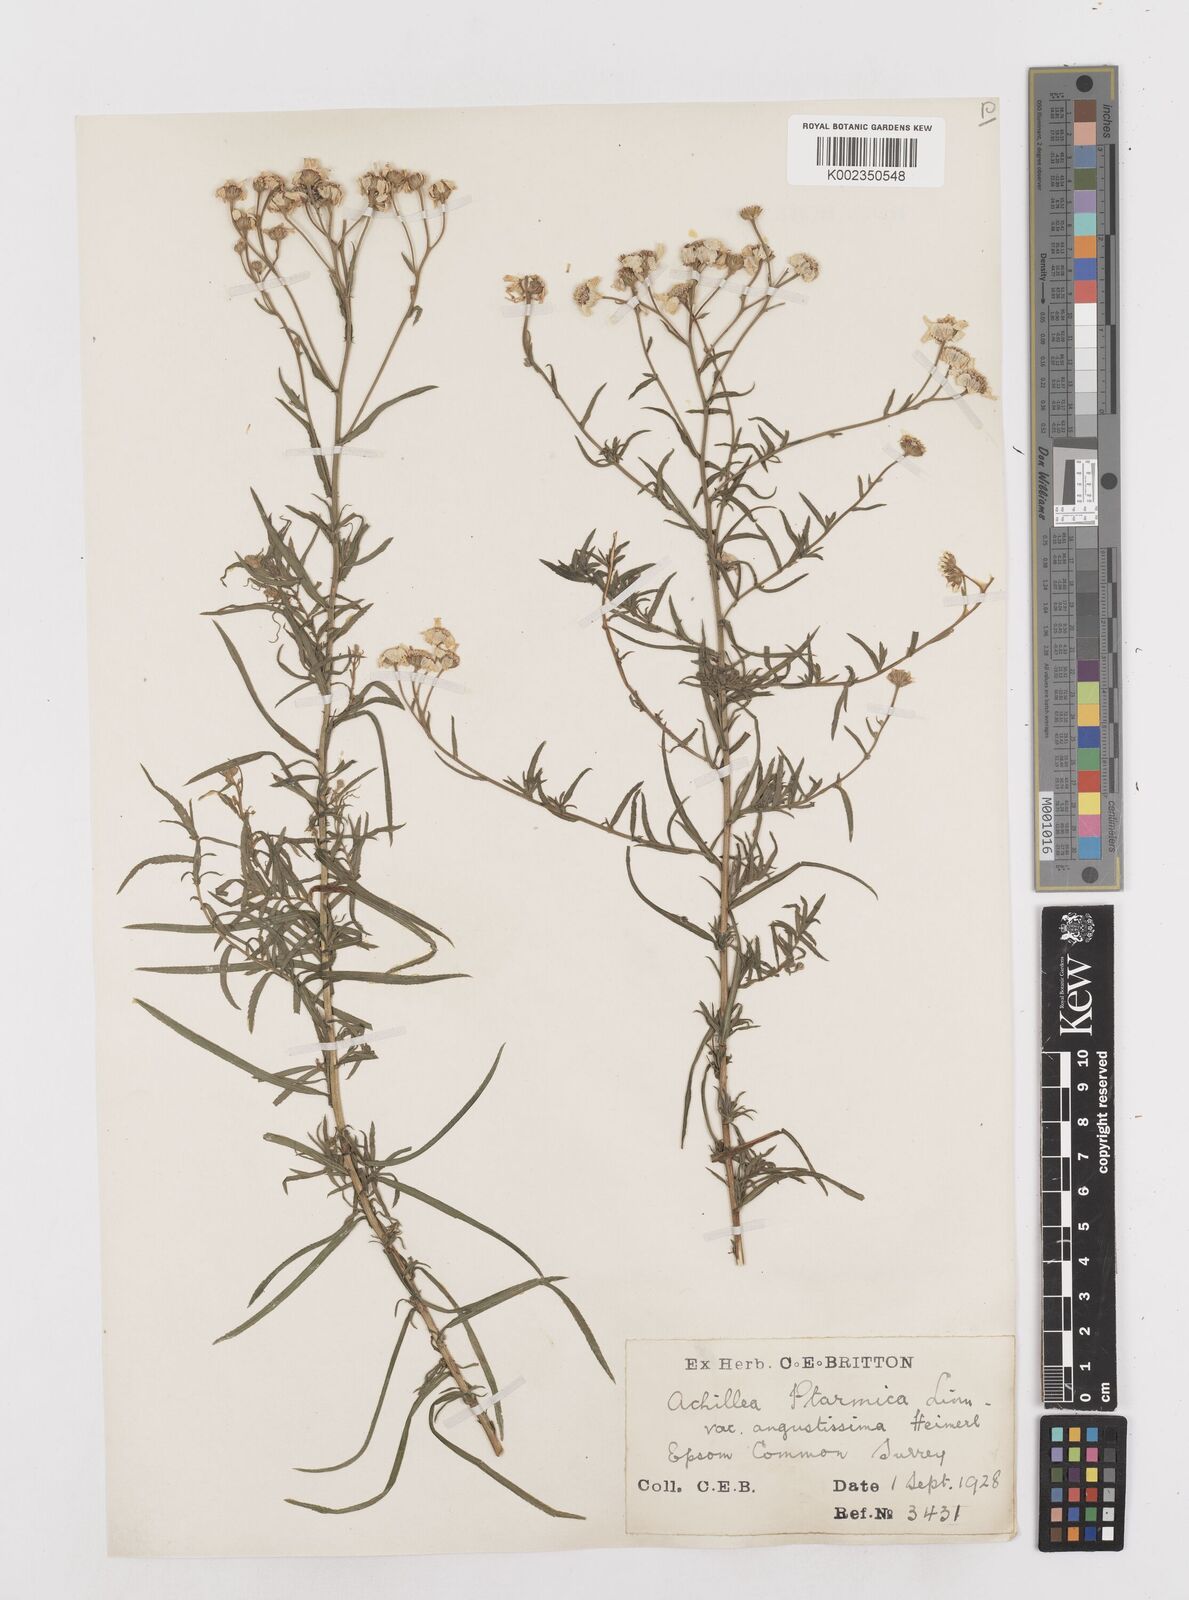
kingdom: Plantae
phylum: Tracheophyta
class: Magnoliopsida
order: Asterales
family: Asteraceae
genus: Achillea
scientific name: Achillea ptarmica
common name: Sneezeweed
